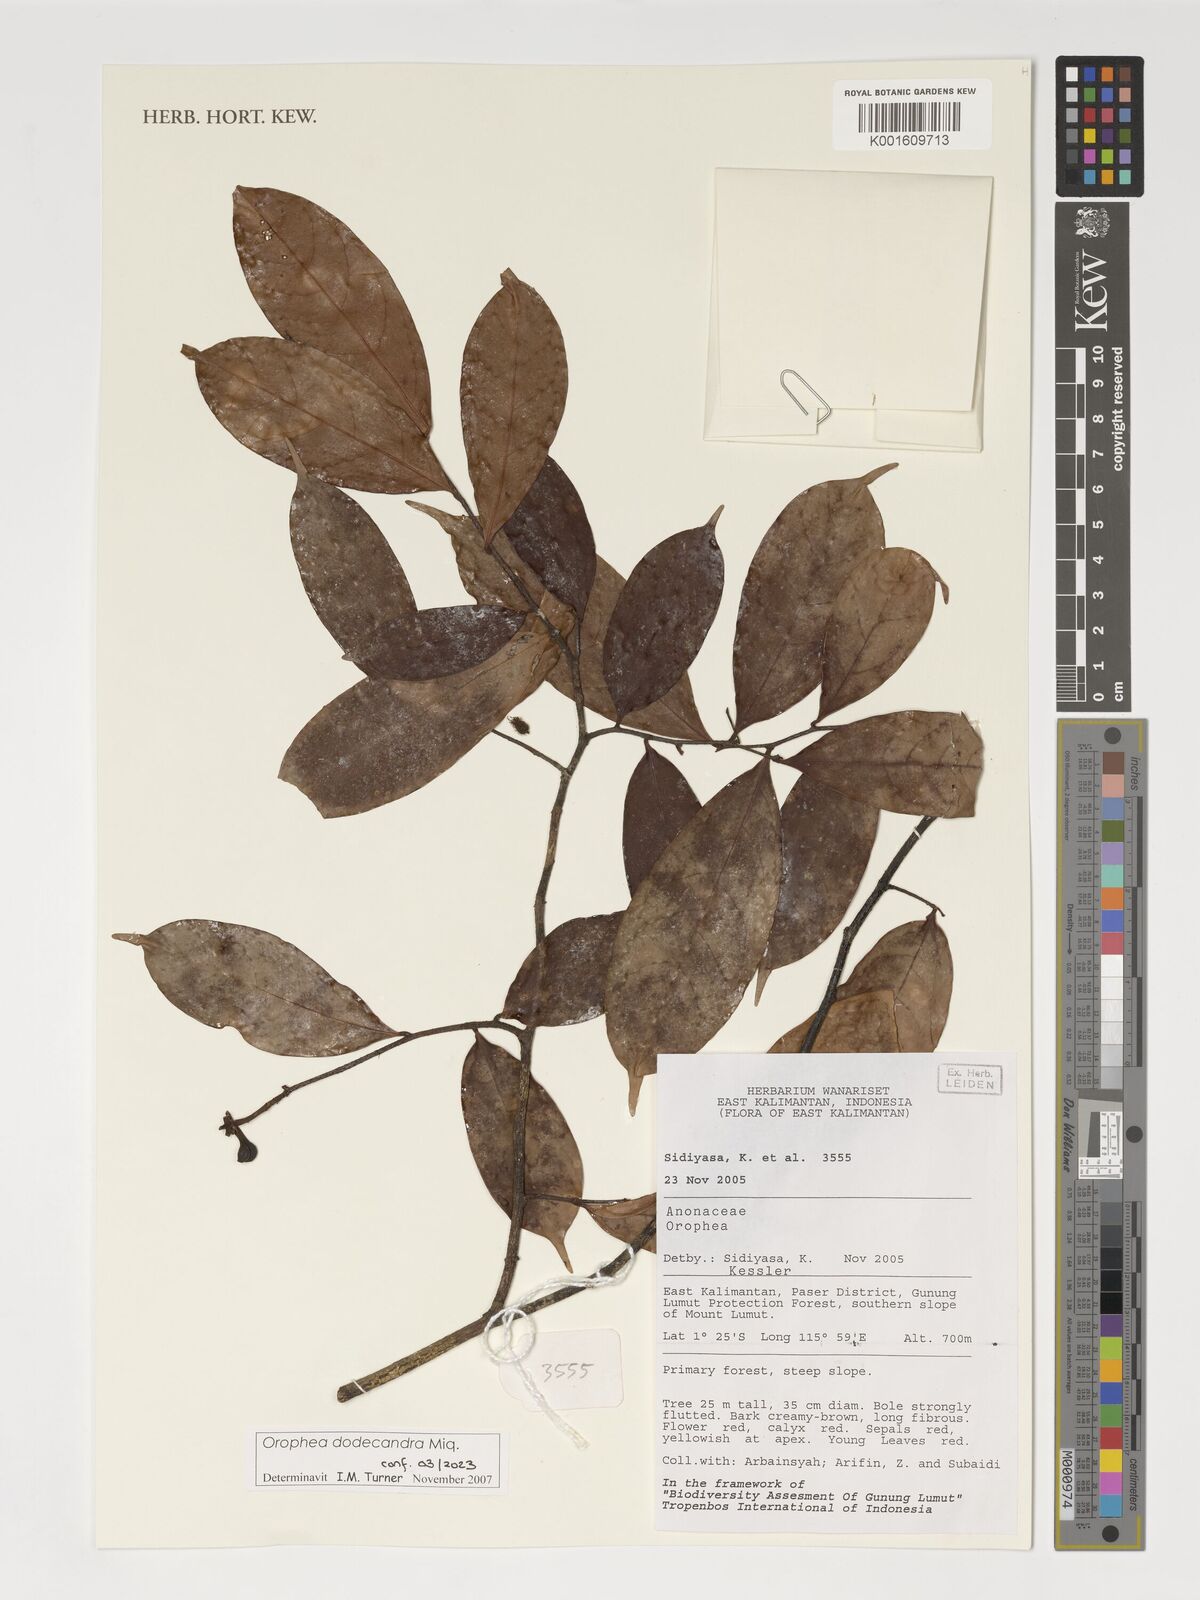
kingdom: Plantae
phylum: Tracheophyta
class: Magnoliopsida
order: Magnoliales
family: Annonaceae
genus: Orophea
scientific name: Orophea dodecandra
